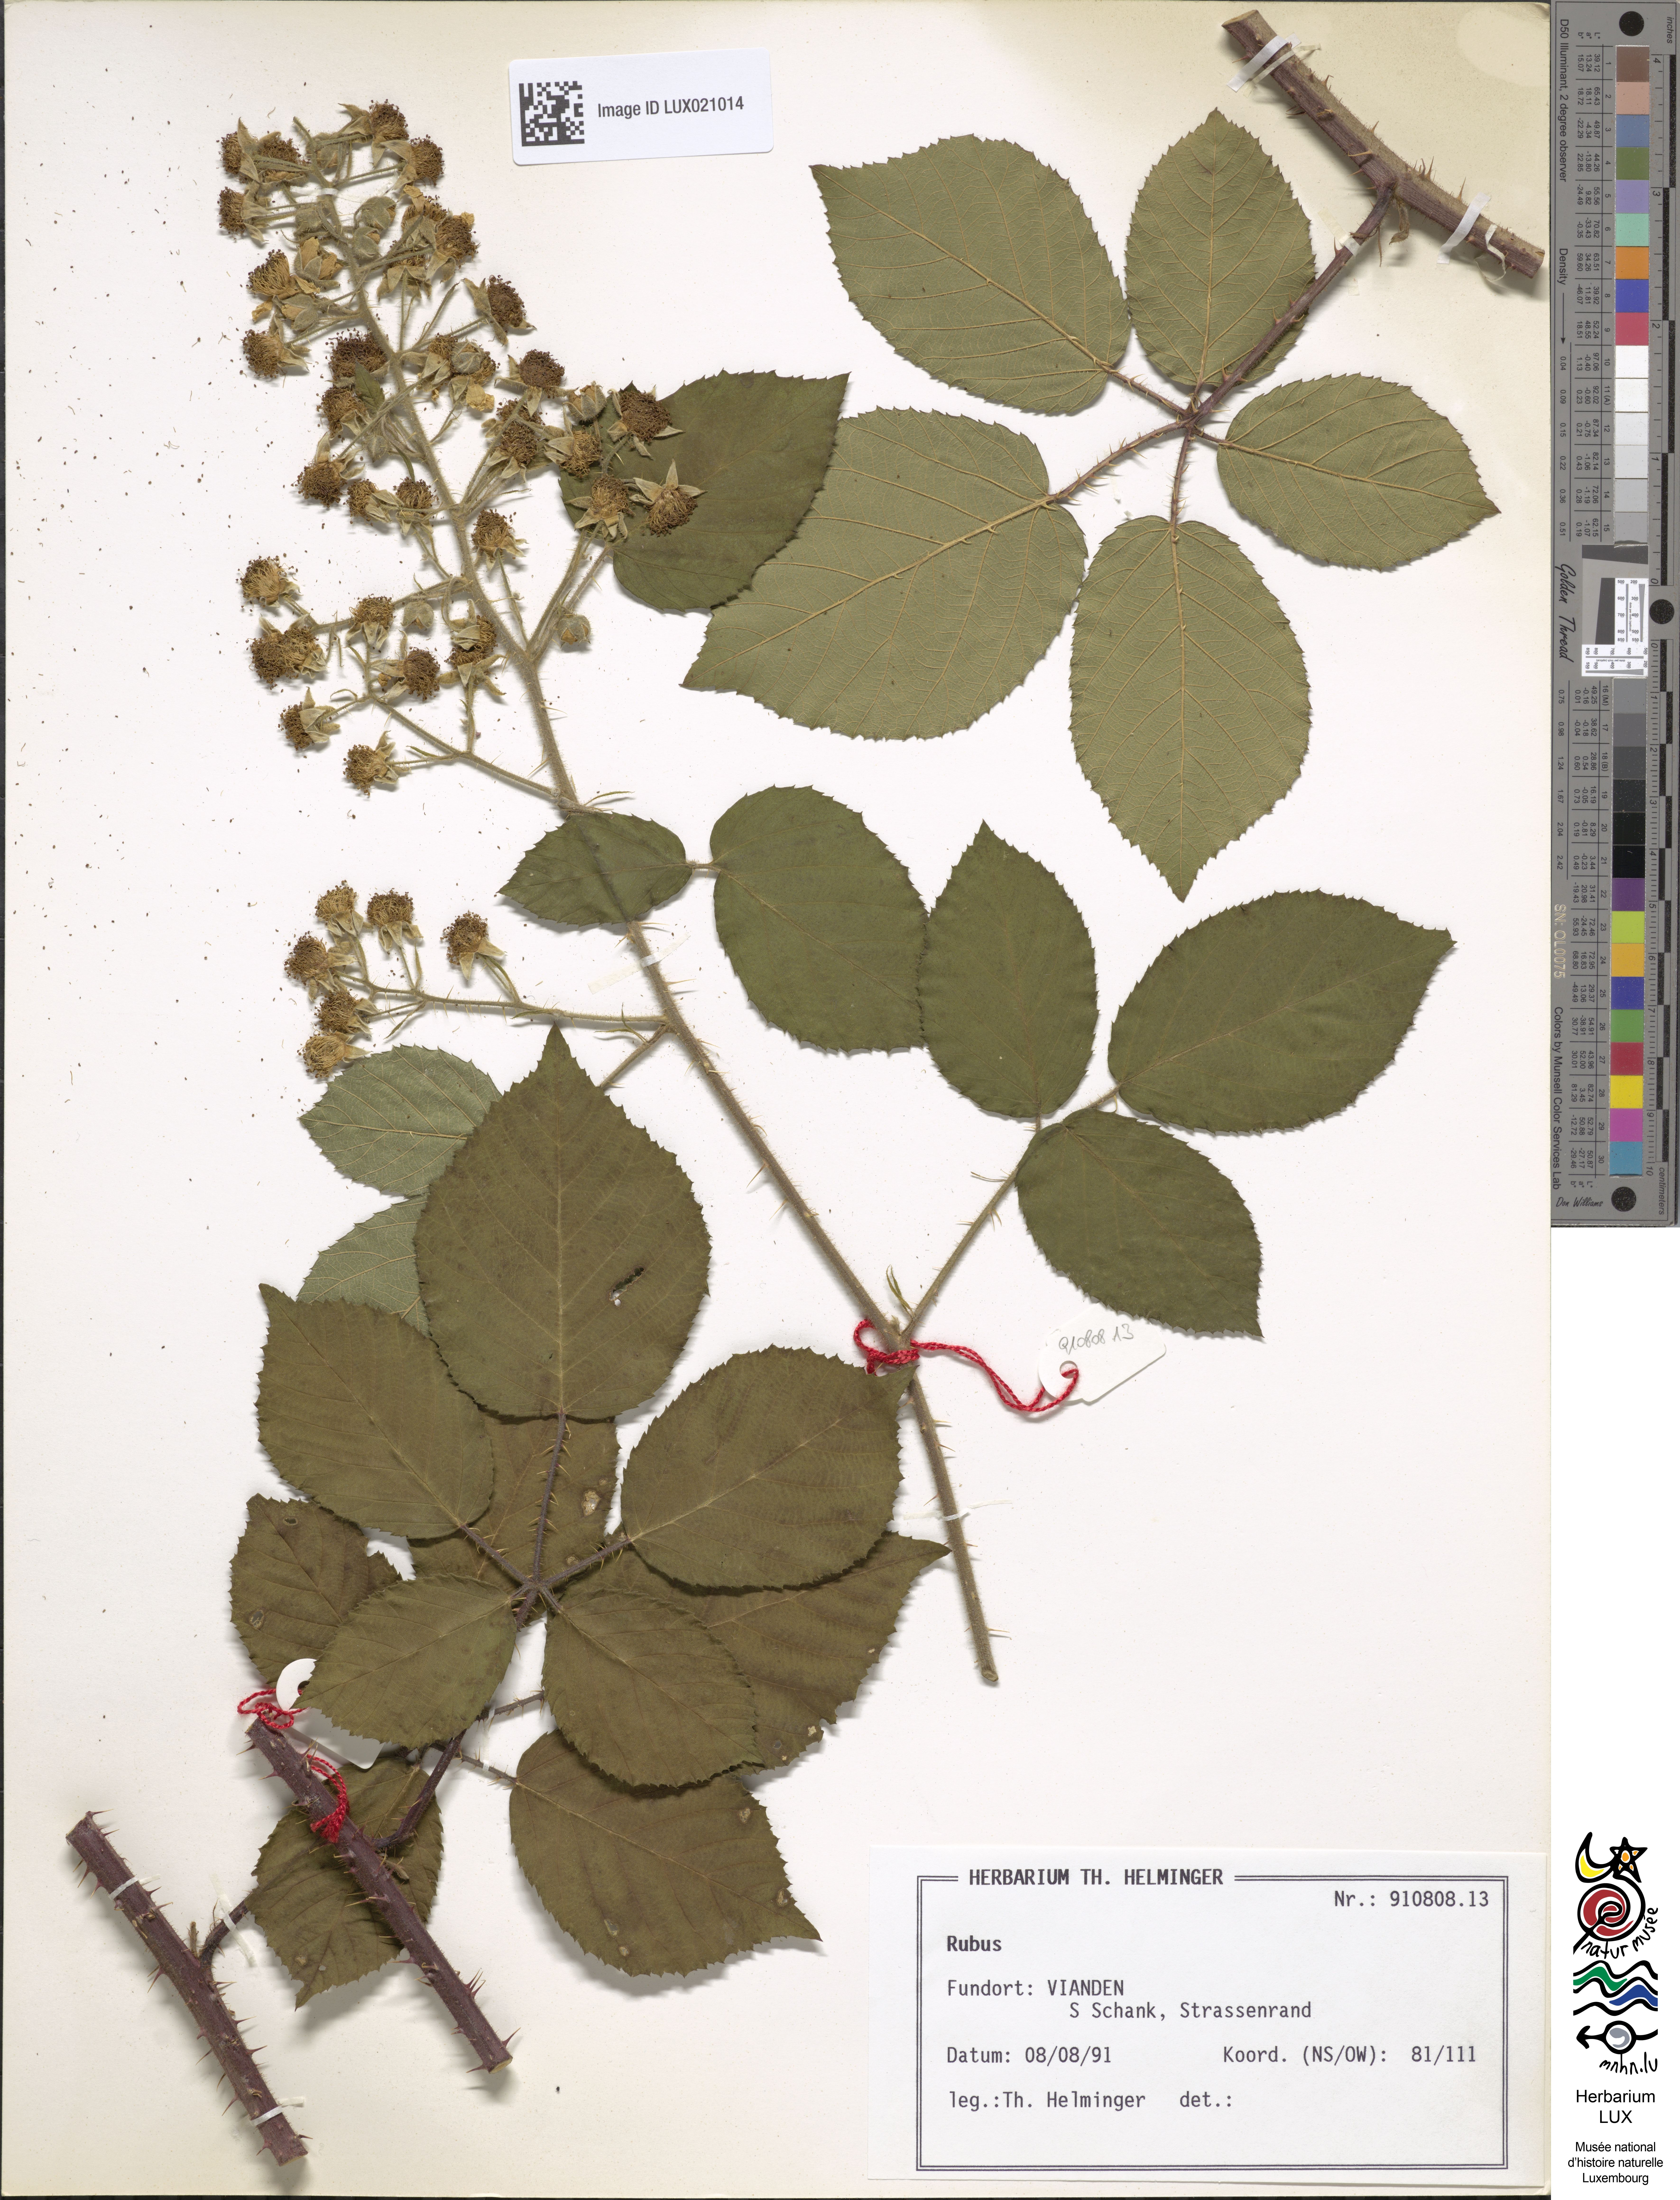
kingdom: Plantae
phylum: Tracheophyta
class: Magnoliopsida
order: Rosales
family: Rosaceae
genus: Rubus
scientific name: Rubus omalodontos
